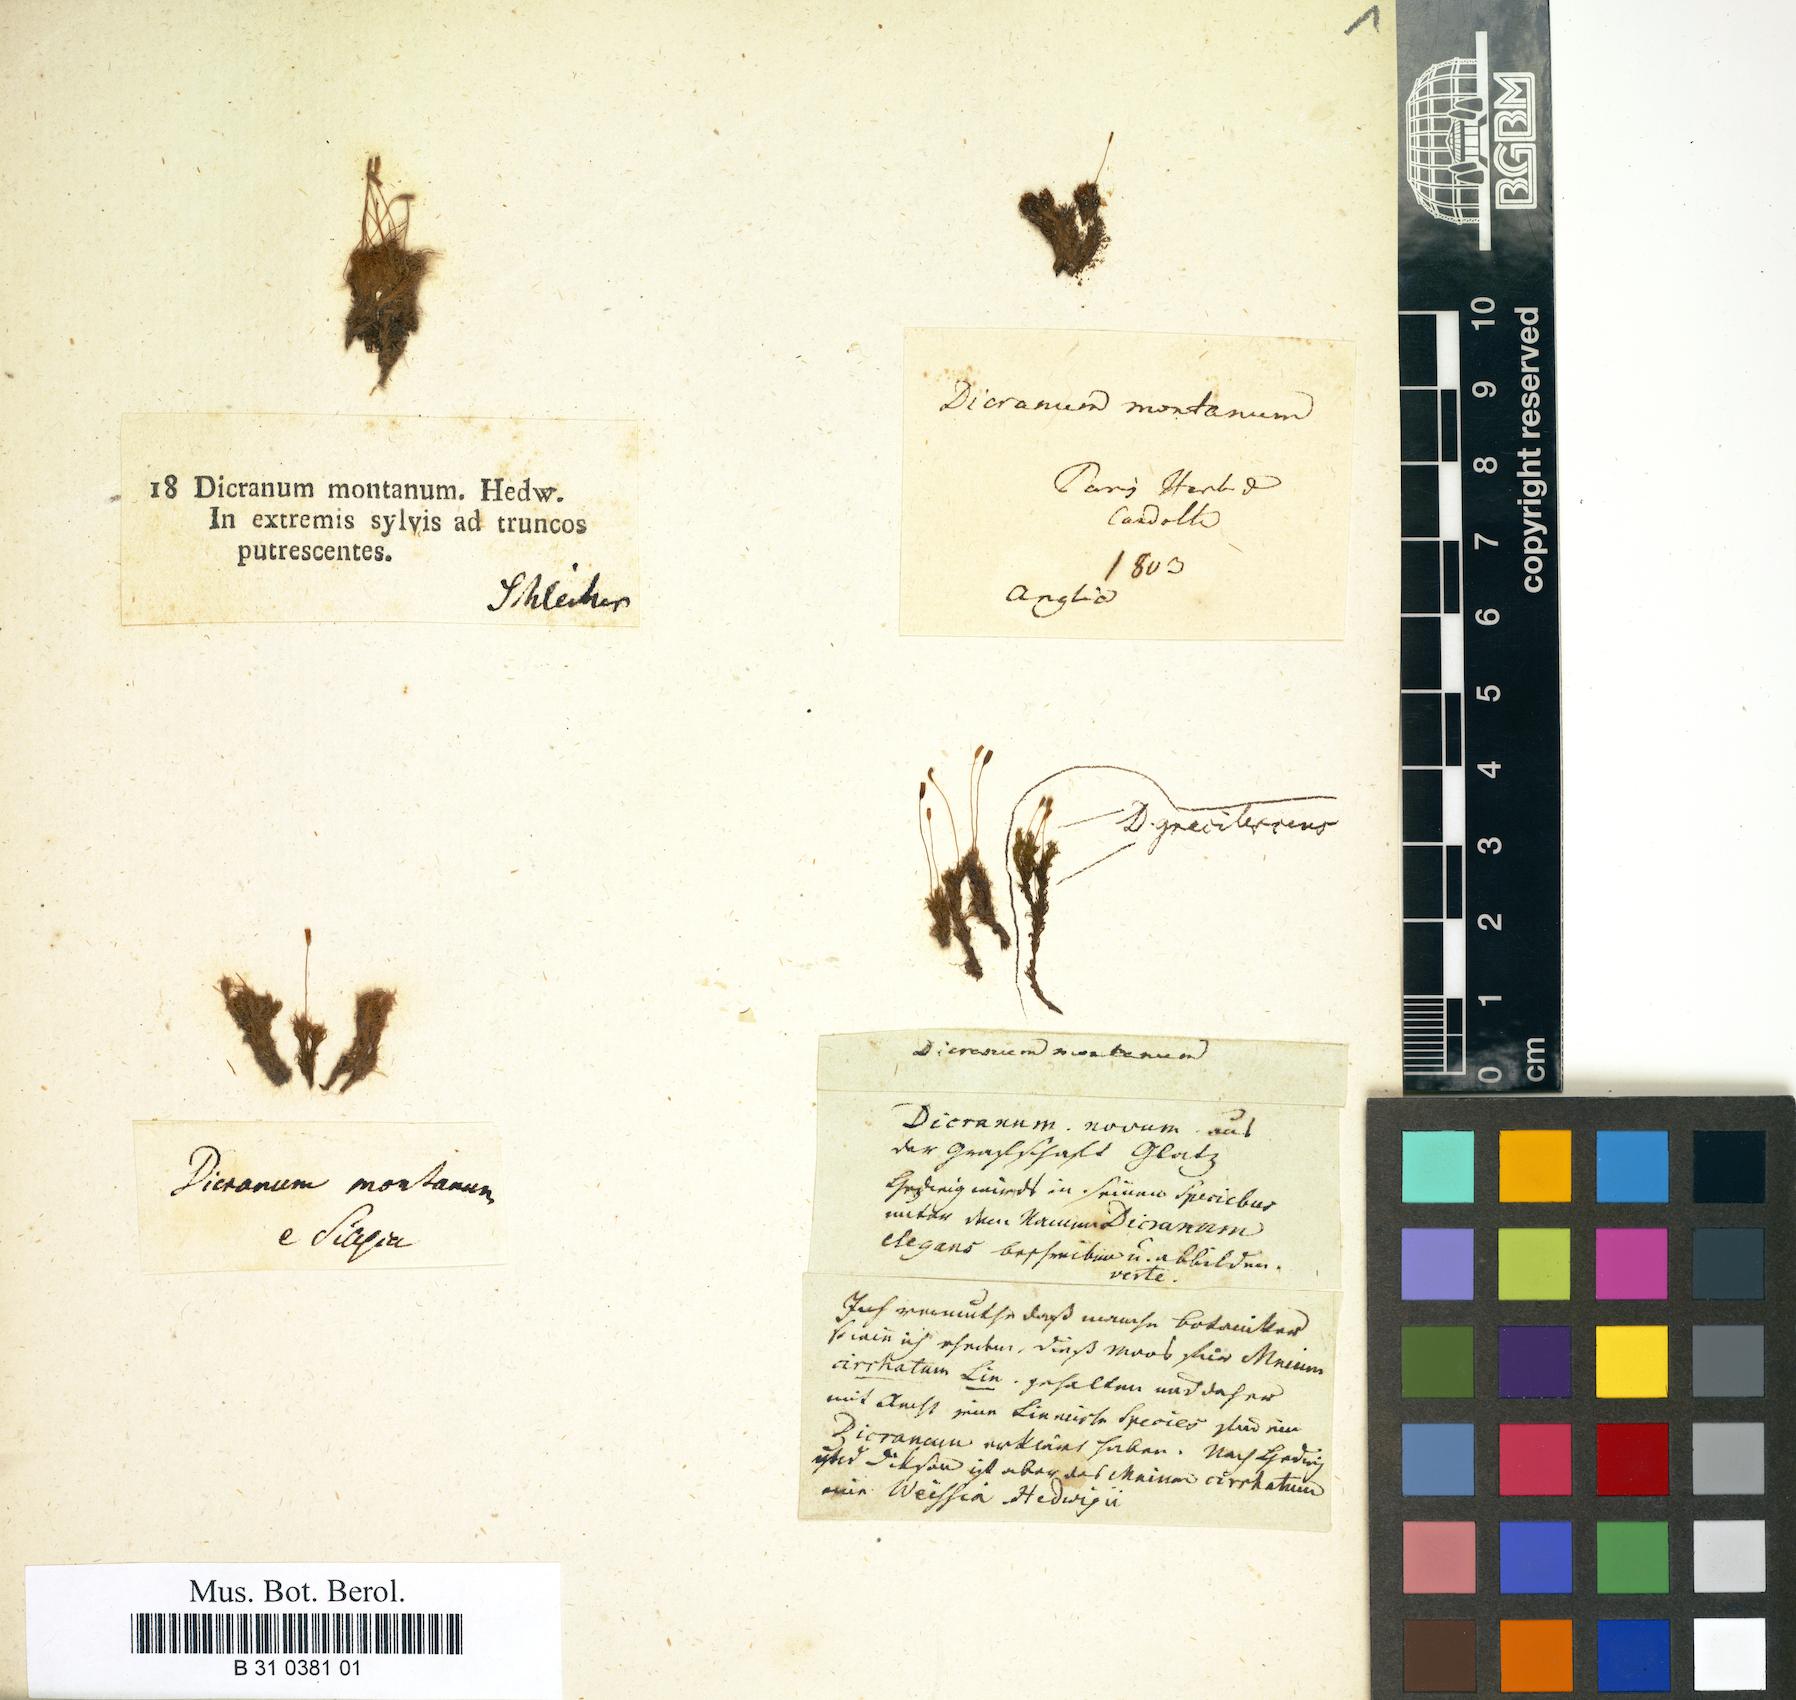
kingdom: Plantae
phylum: Bryophyta
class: Bryopsida
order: Dicranales
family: Dicranaceae
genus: Orthodicranum
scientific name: Orthodicranum montanum
